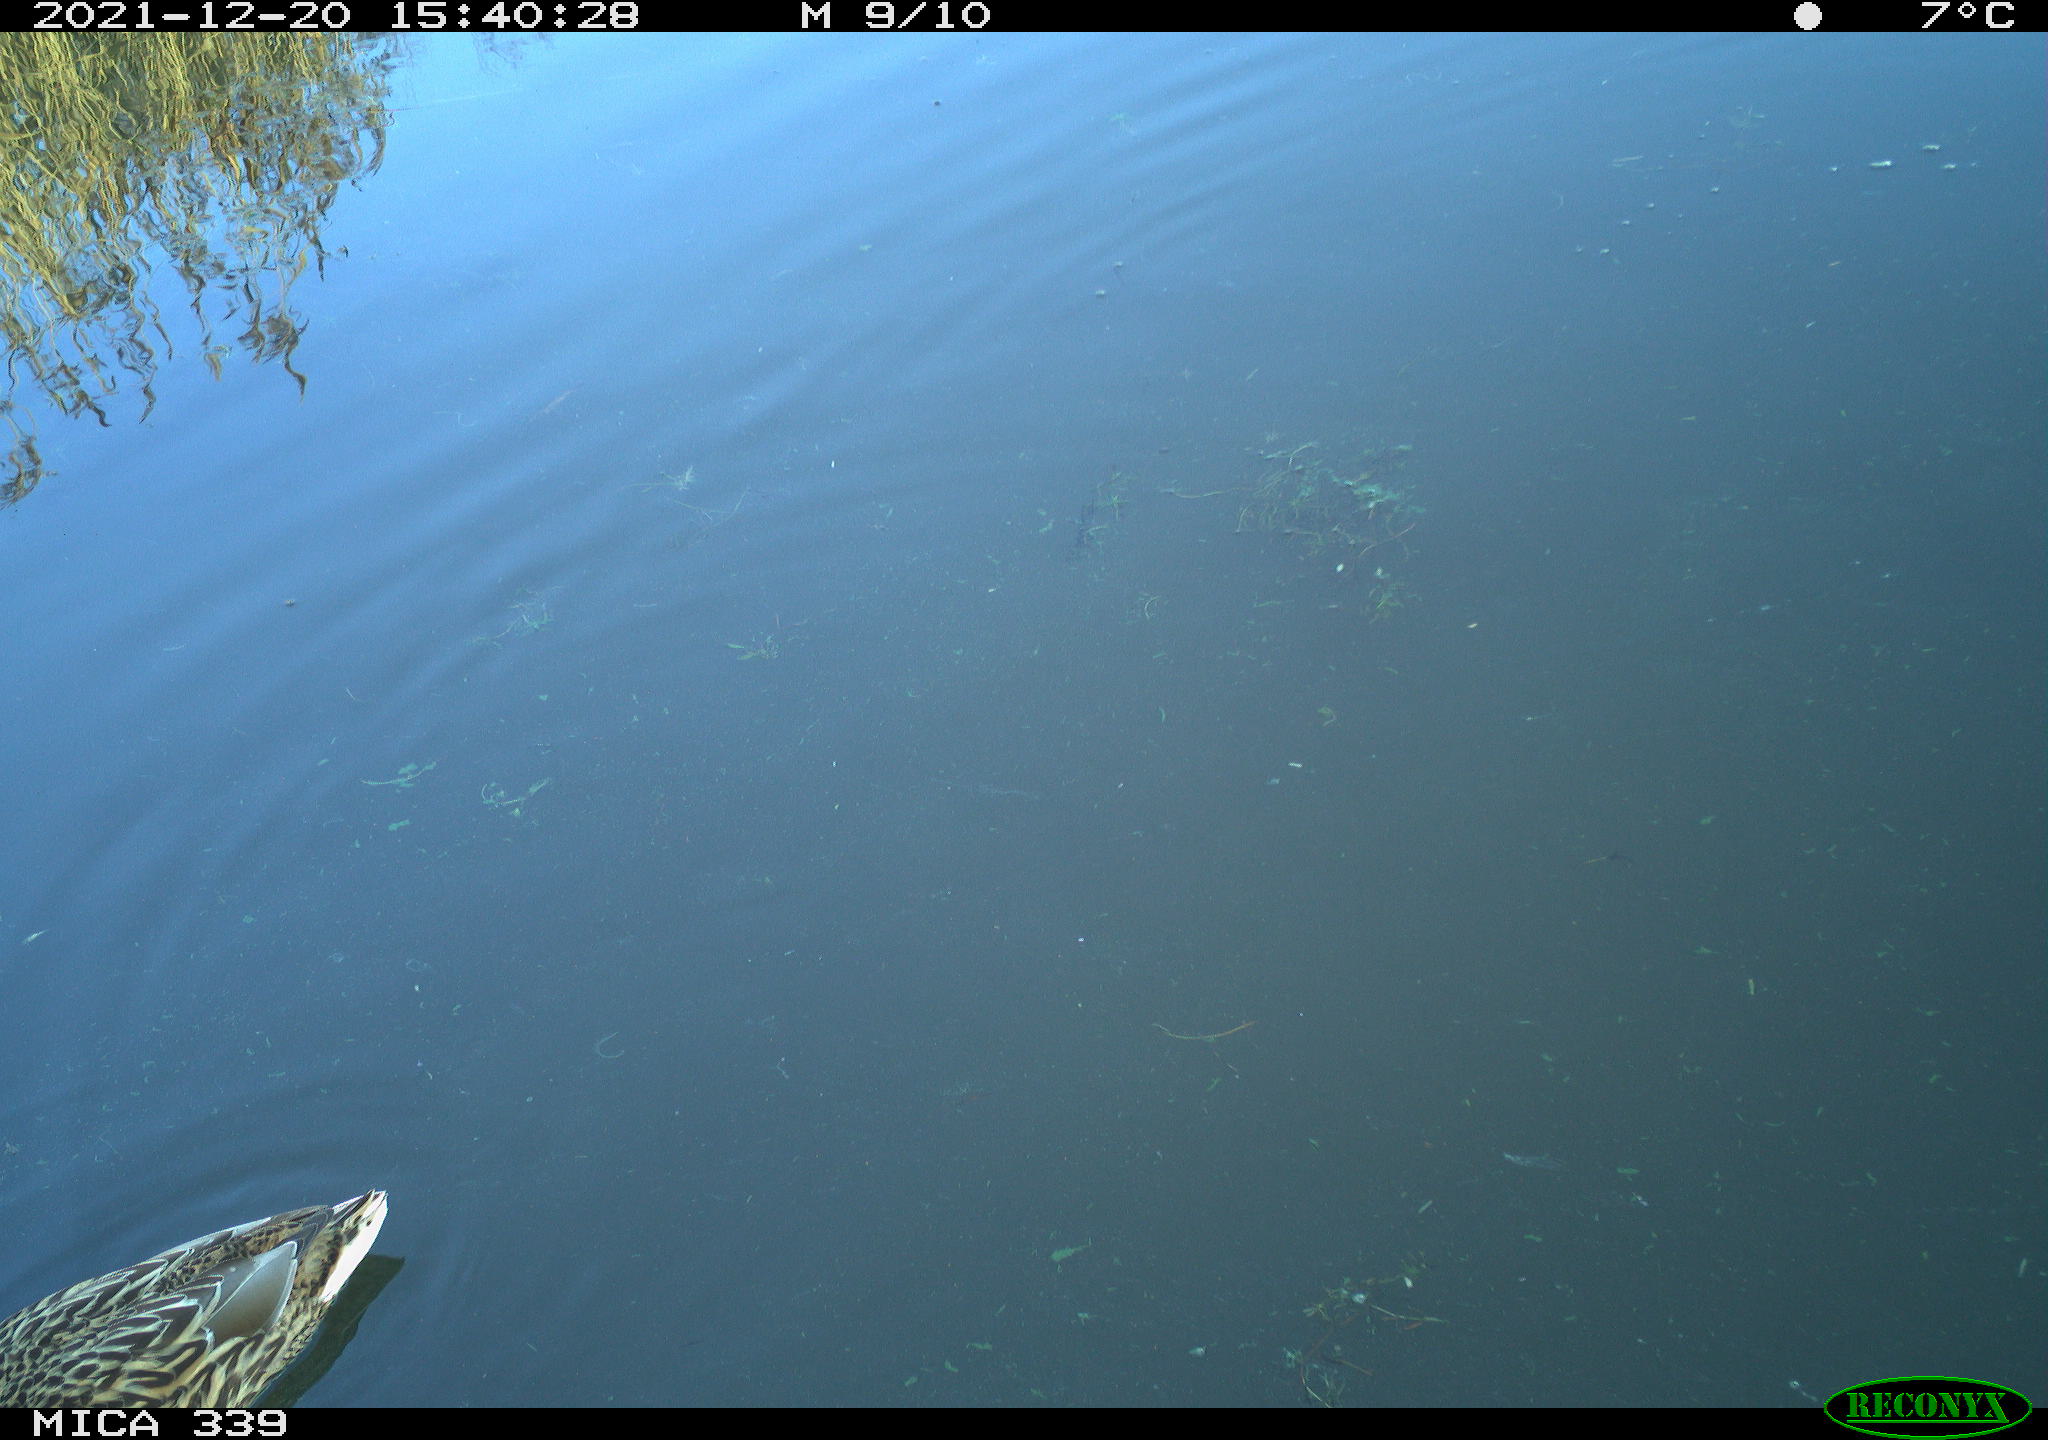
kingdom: Animalia
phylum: Chordata
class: Aves
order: Anseriformes
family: Anatidae
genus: Anas
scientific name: Anas platyrhynchos
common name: Mallard
